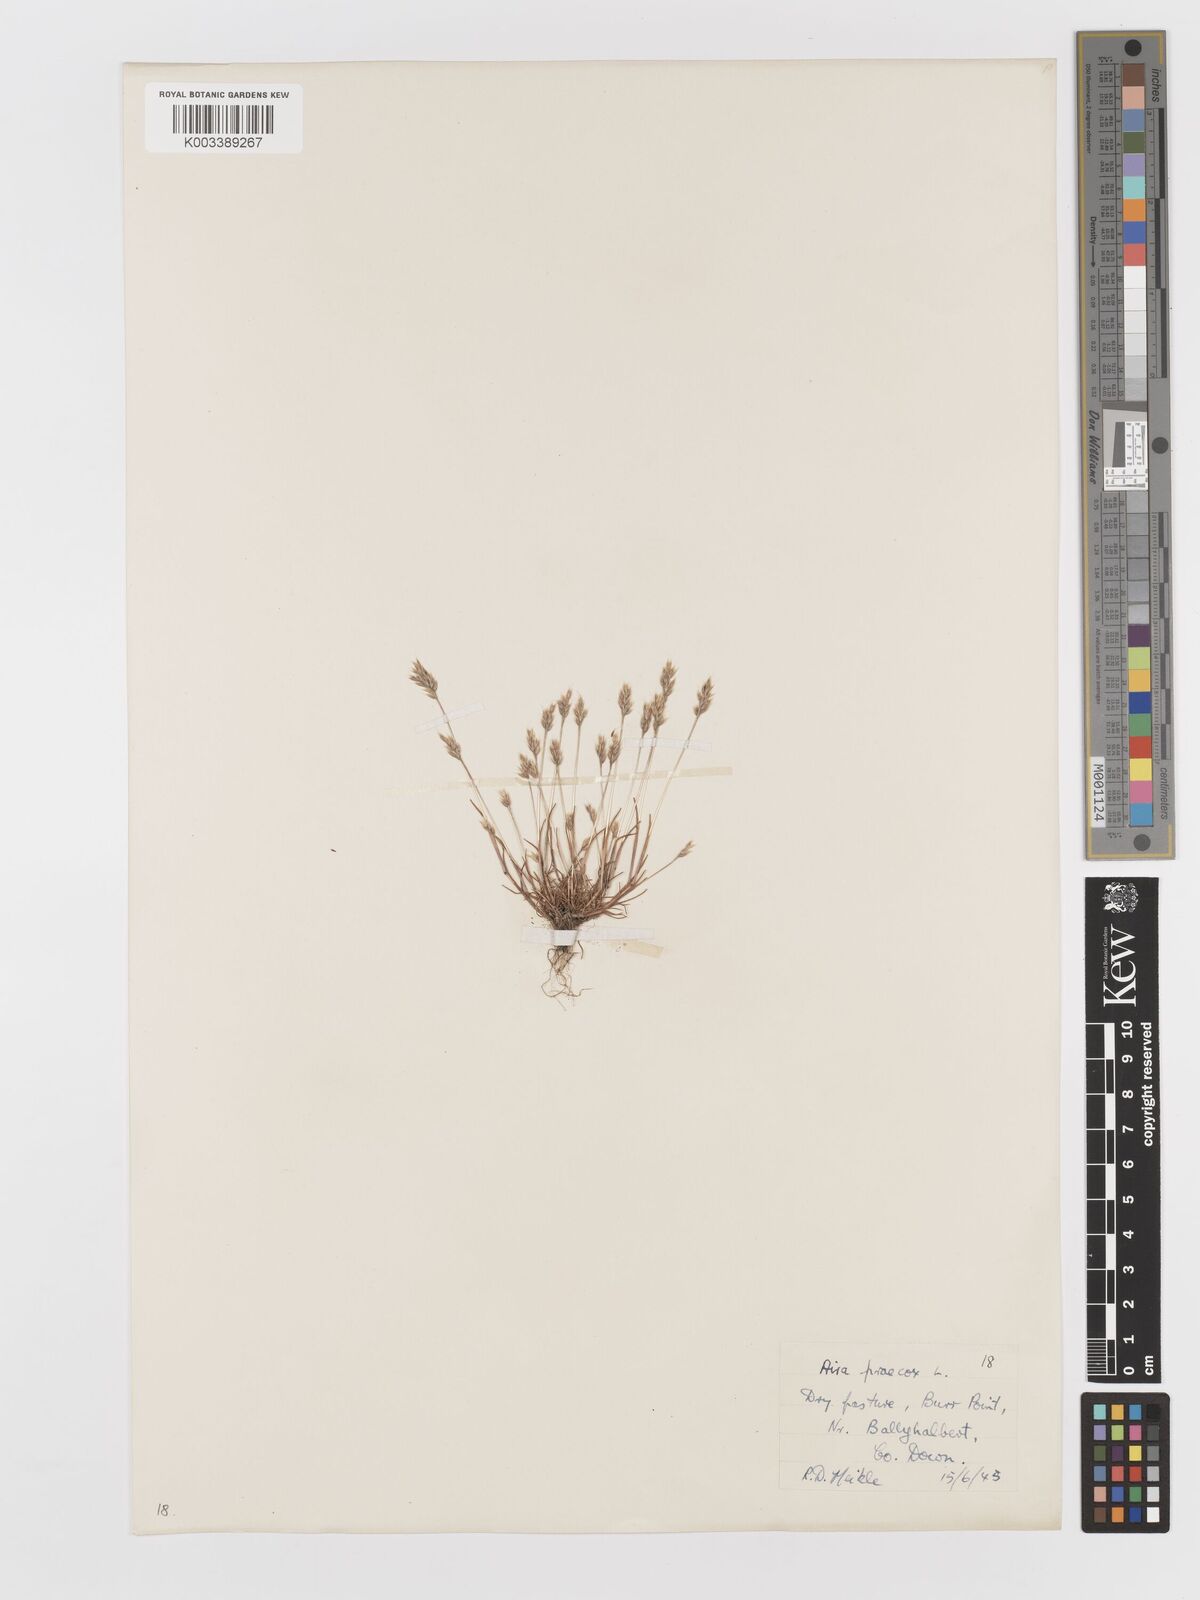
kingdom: Plantae
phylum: Tracheophyta
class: Liliopsida
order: Poales
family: Poaceae
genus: Aira
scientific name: Aira praecox
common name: Early hair-grass
